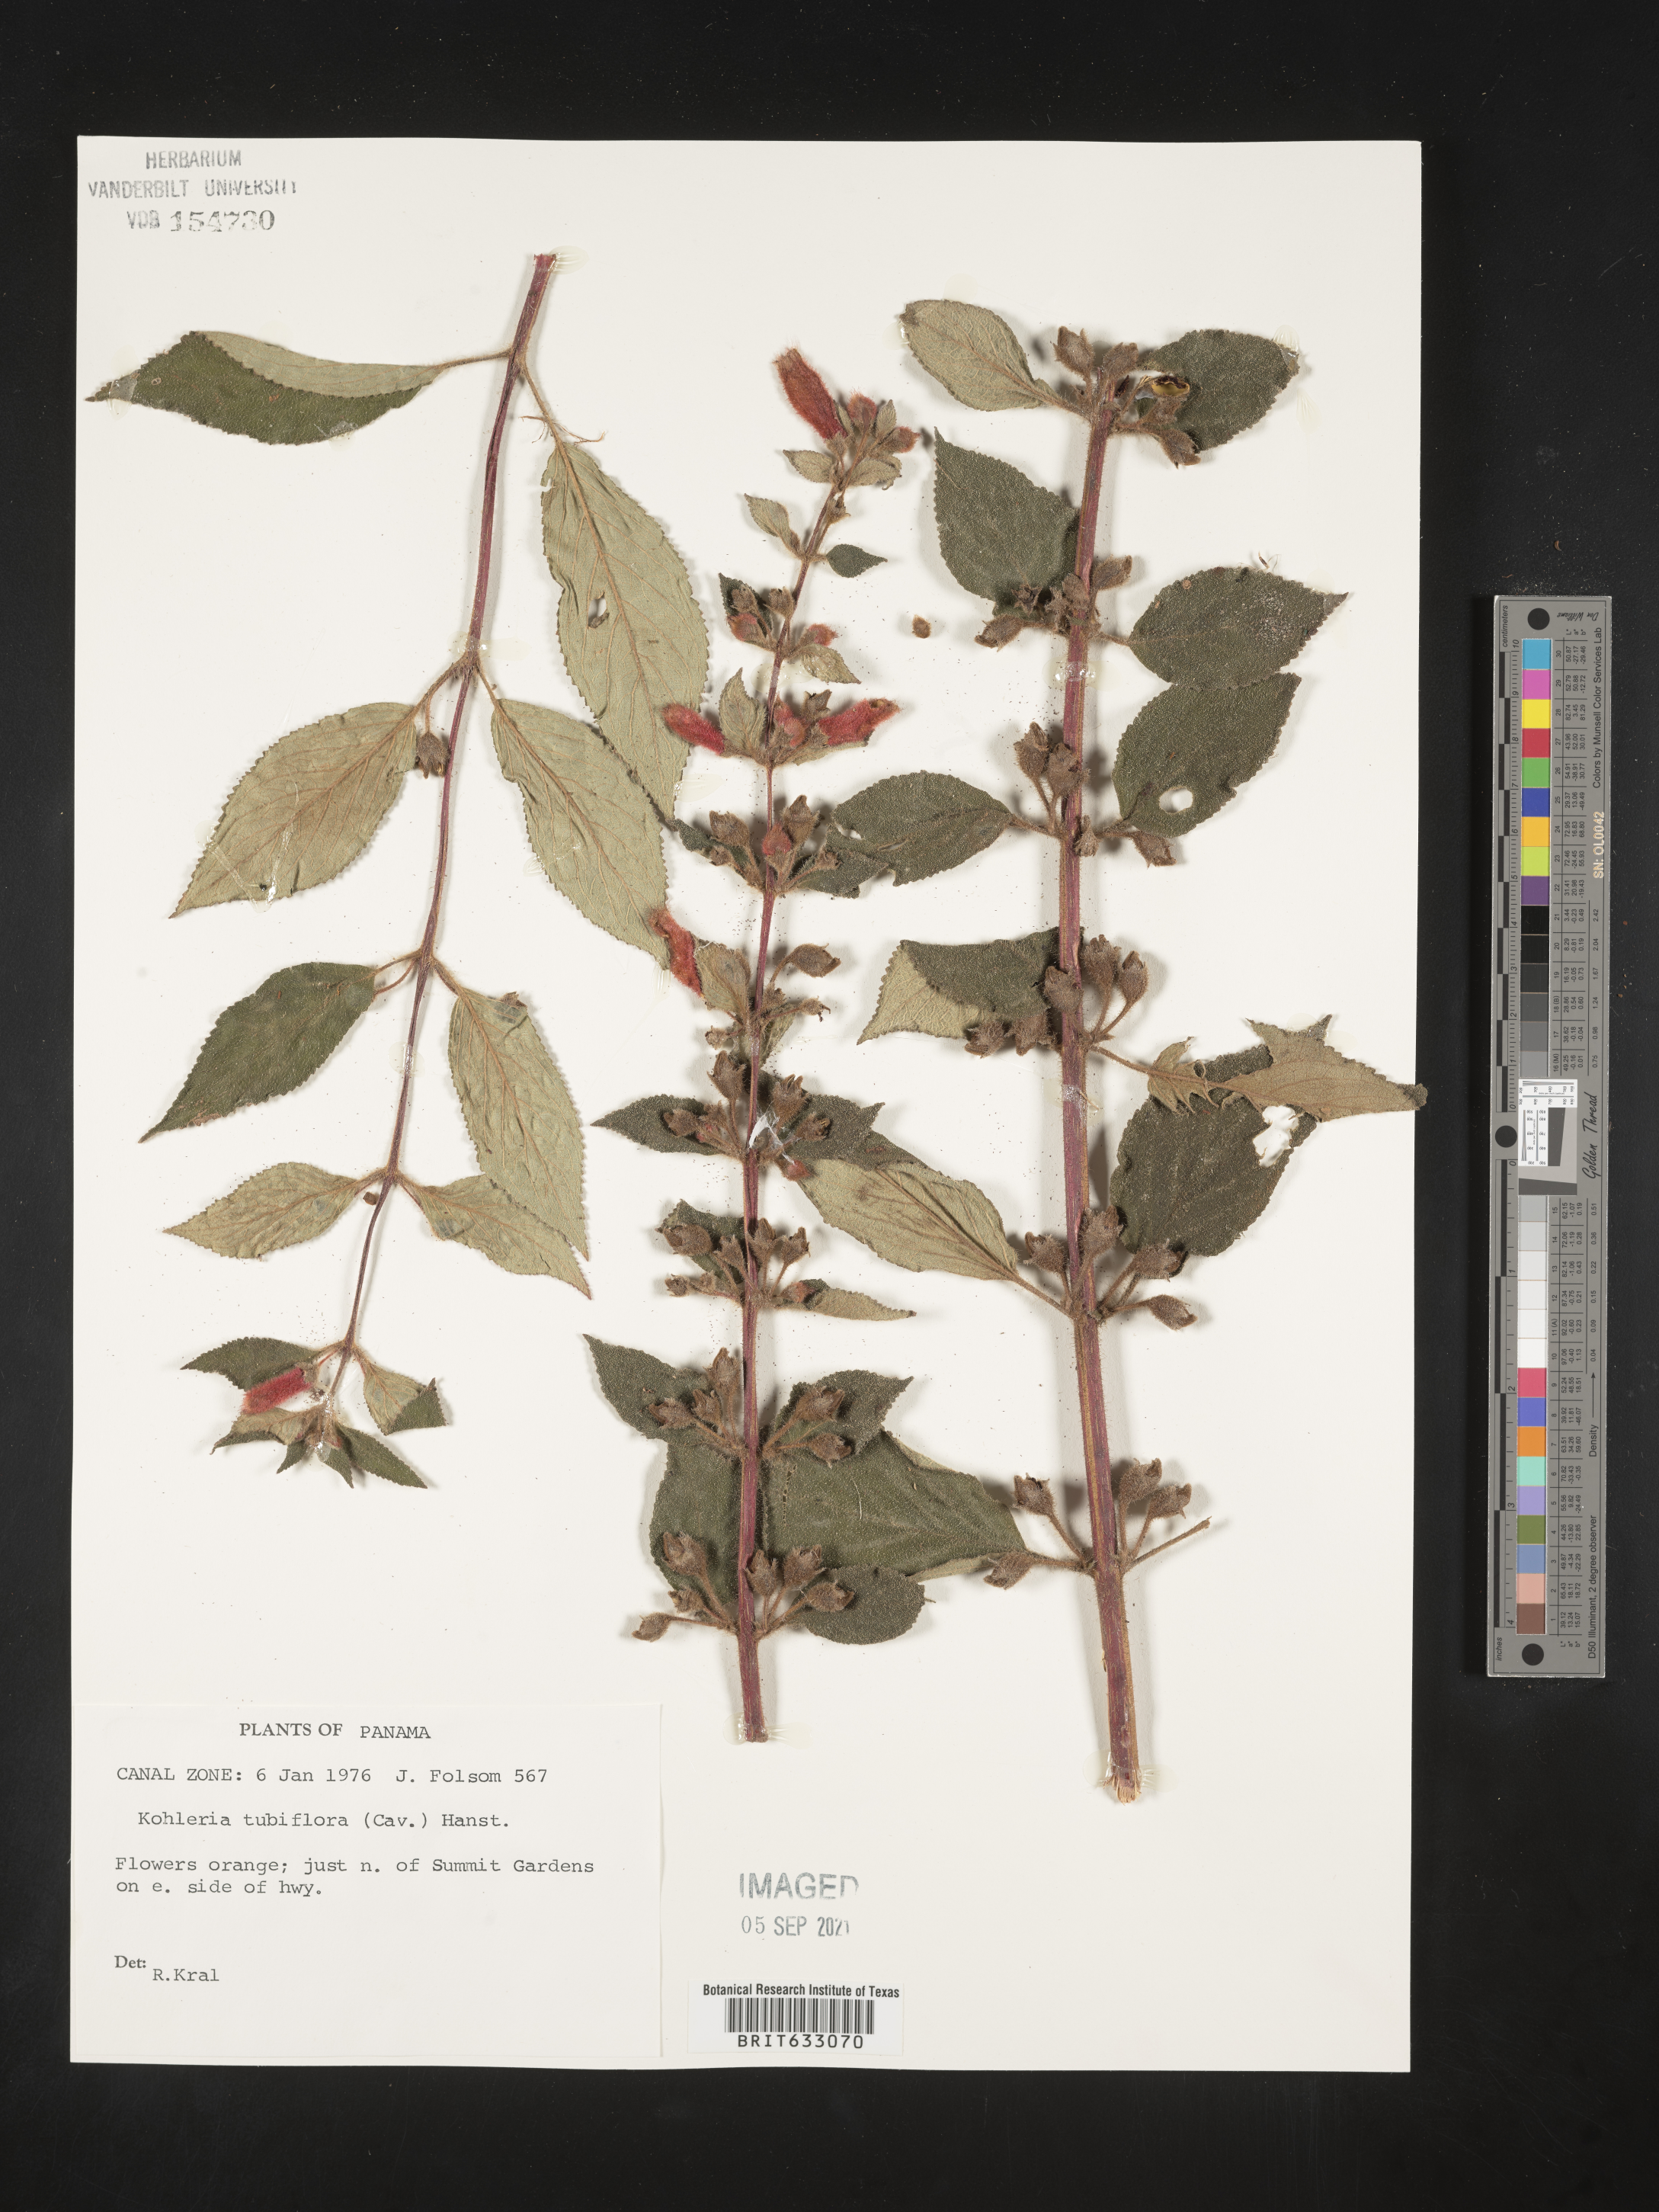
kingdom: Plantae
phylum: Tracheophyta
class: Magnoliopsida
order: Lamiales
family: Gesneriaceae
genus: Kohleria
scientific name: Kohleria
